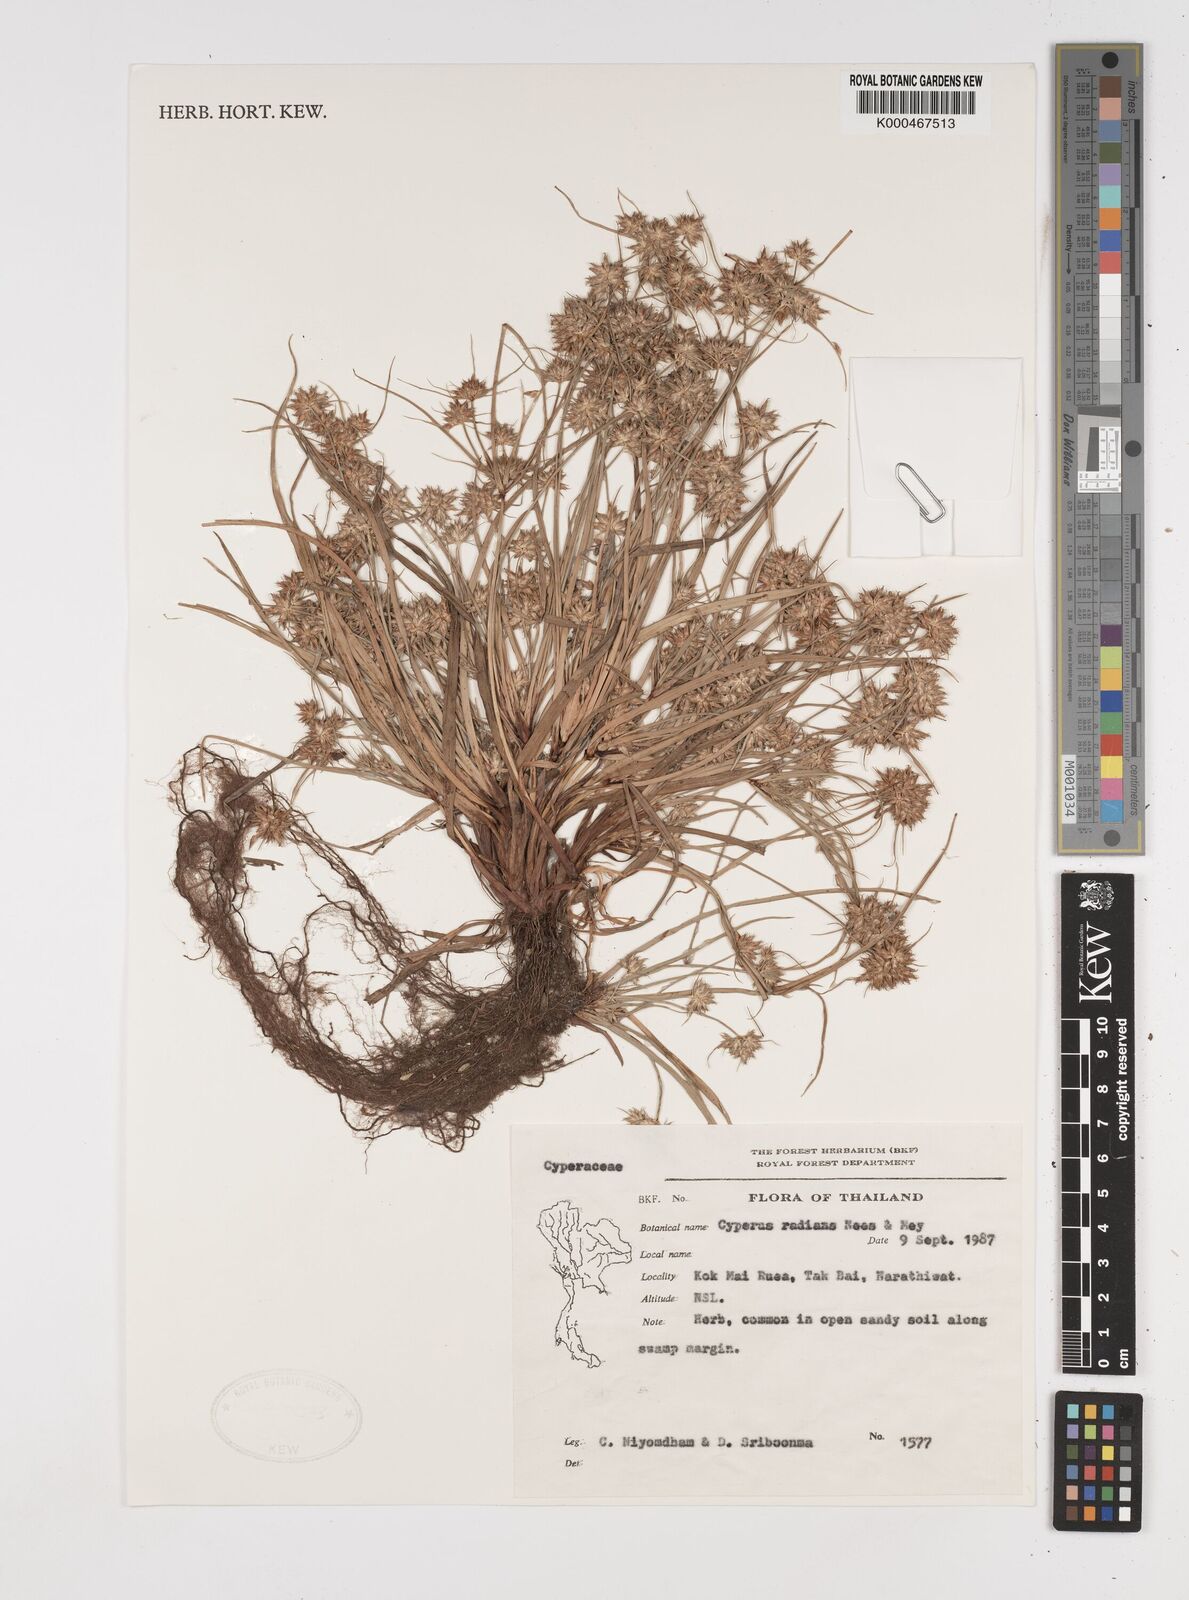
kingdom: Plantae
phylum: Tracheophyta
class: Liliopsida
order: Poales
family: Cyperaceae
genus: Cyperus
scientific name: Cyperus radians
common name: Short-stem cyperus
